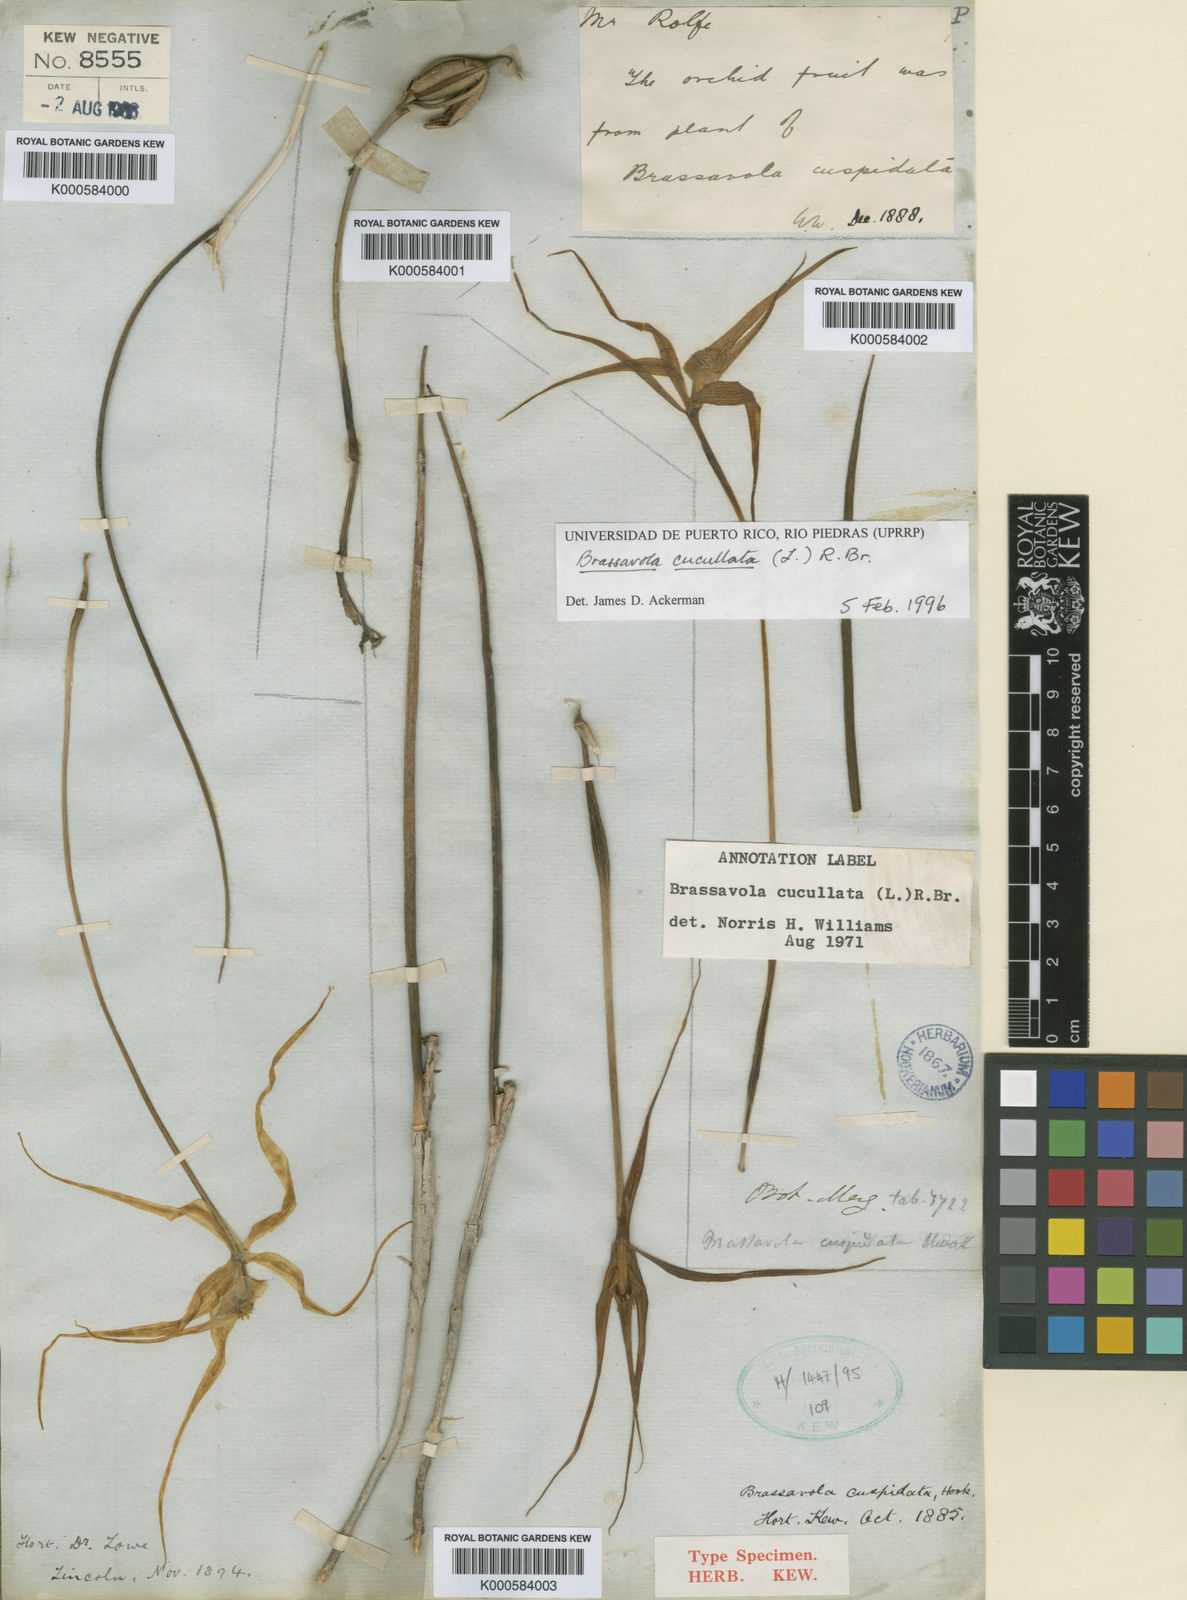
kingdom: Plantae
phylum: Tracheophyta
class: Liliopsida
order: Asparagales
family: Orchidaceae
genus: Brassavola
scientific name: Brassavola cucullata
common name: Daddy longlegs orchid
